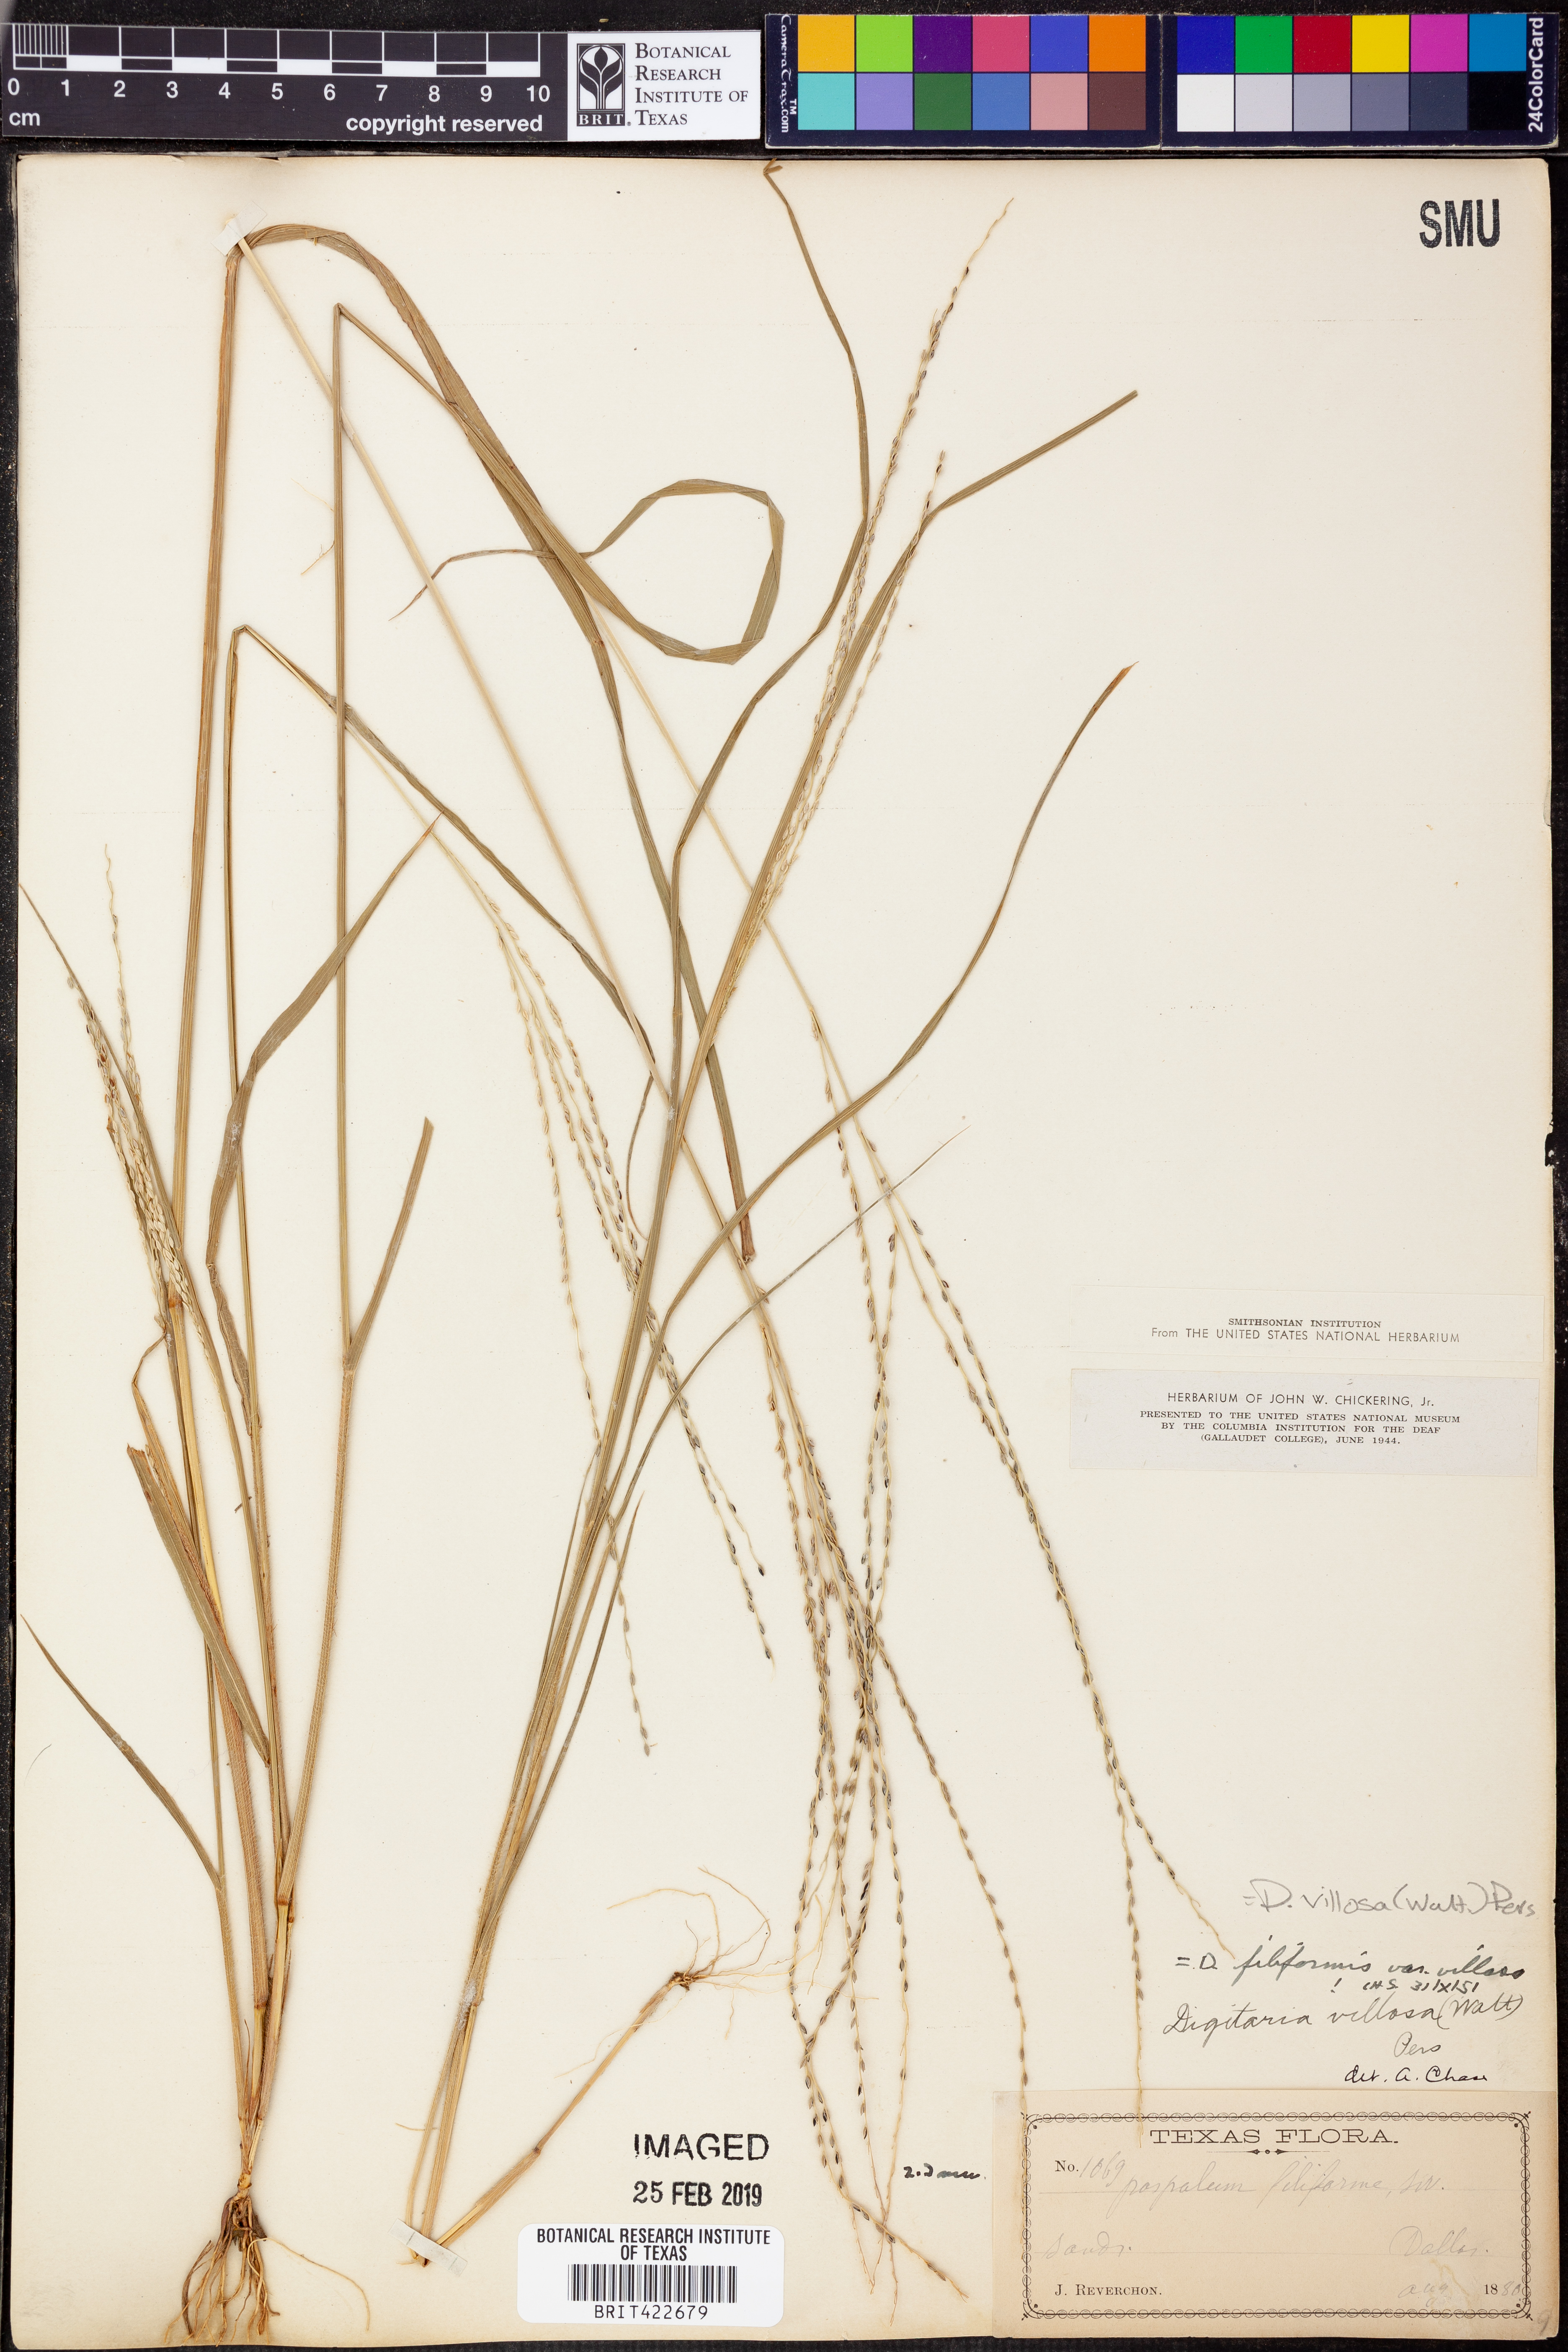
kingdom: Plantae
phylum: Tracheophyta
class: Liliopsida
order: Poales
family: Poaceae
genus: Digitaria
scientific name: Digitaria villosa
